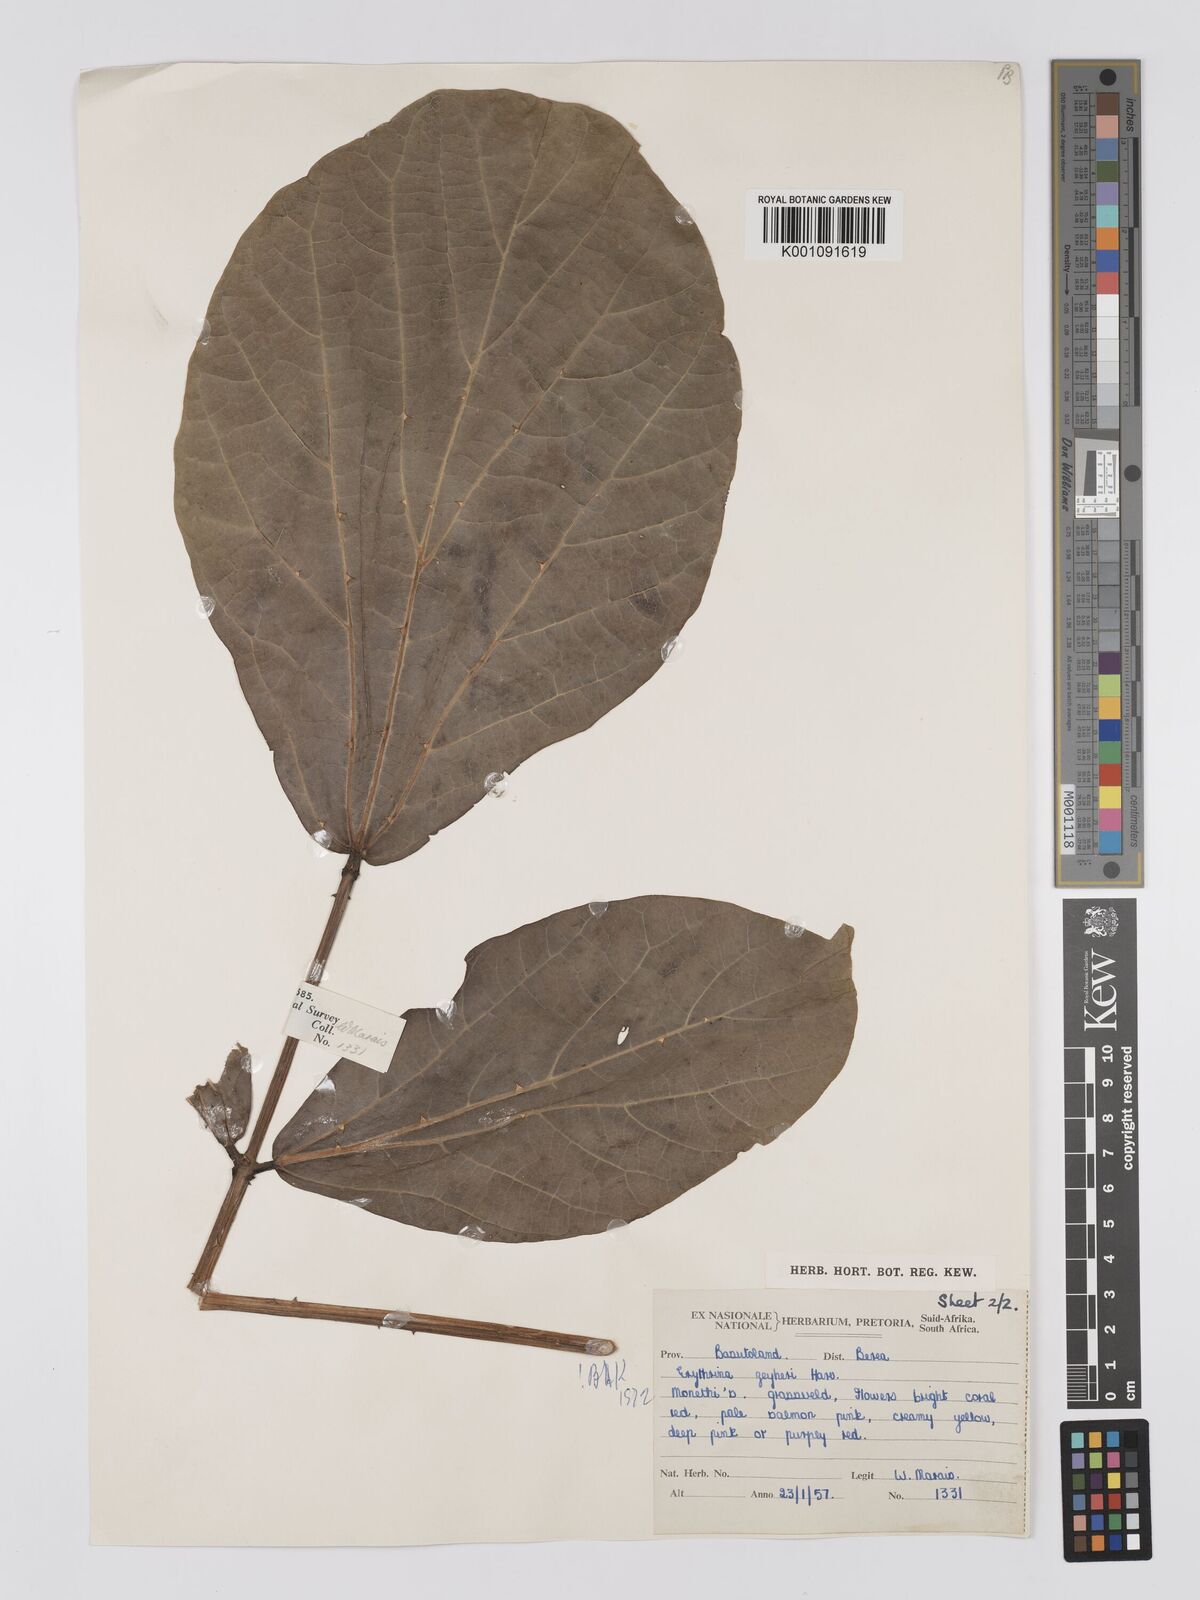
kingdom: Plantae
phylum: Tracheophyta
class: Magnoliopsida
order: Fabales
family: Fabaceae
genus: Erythrina
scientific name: Erythrina zeyheri
